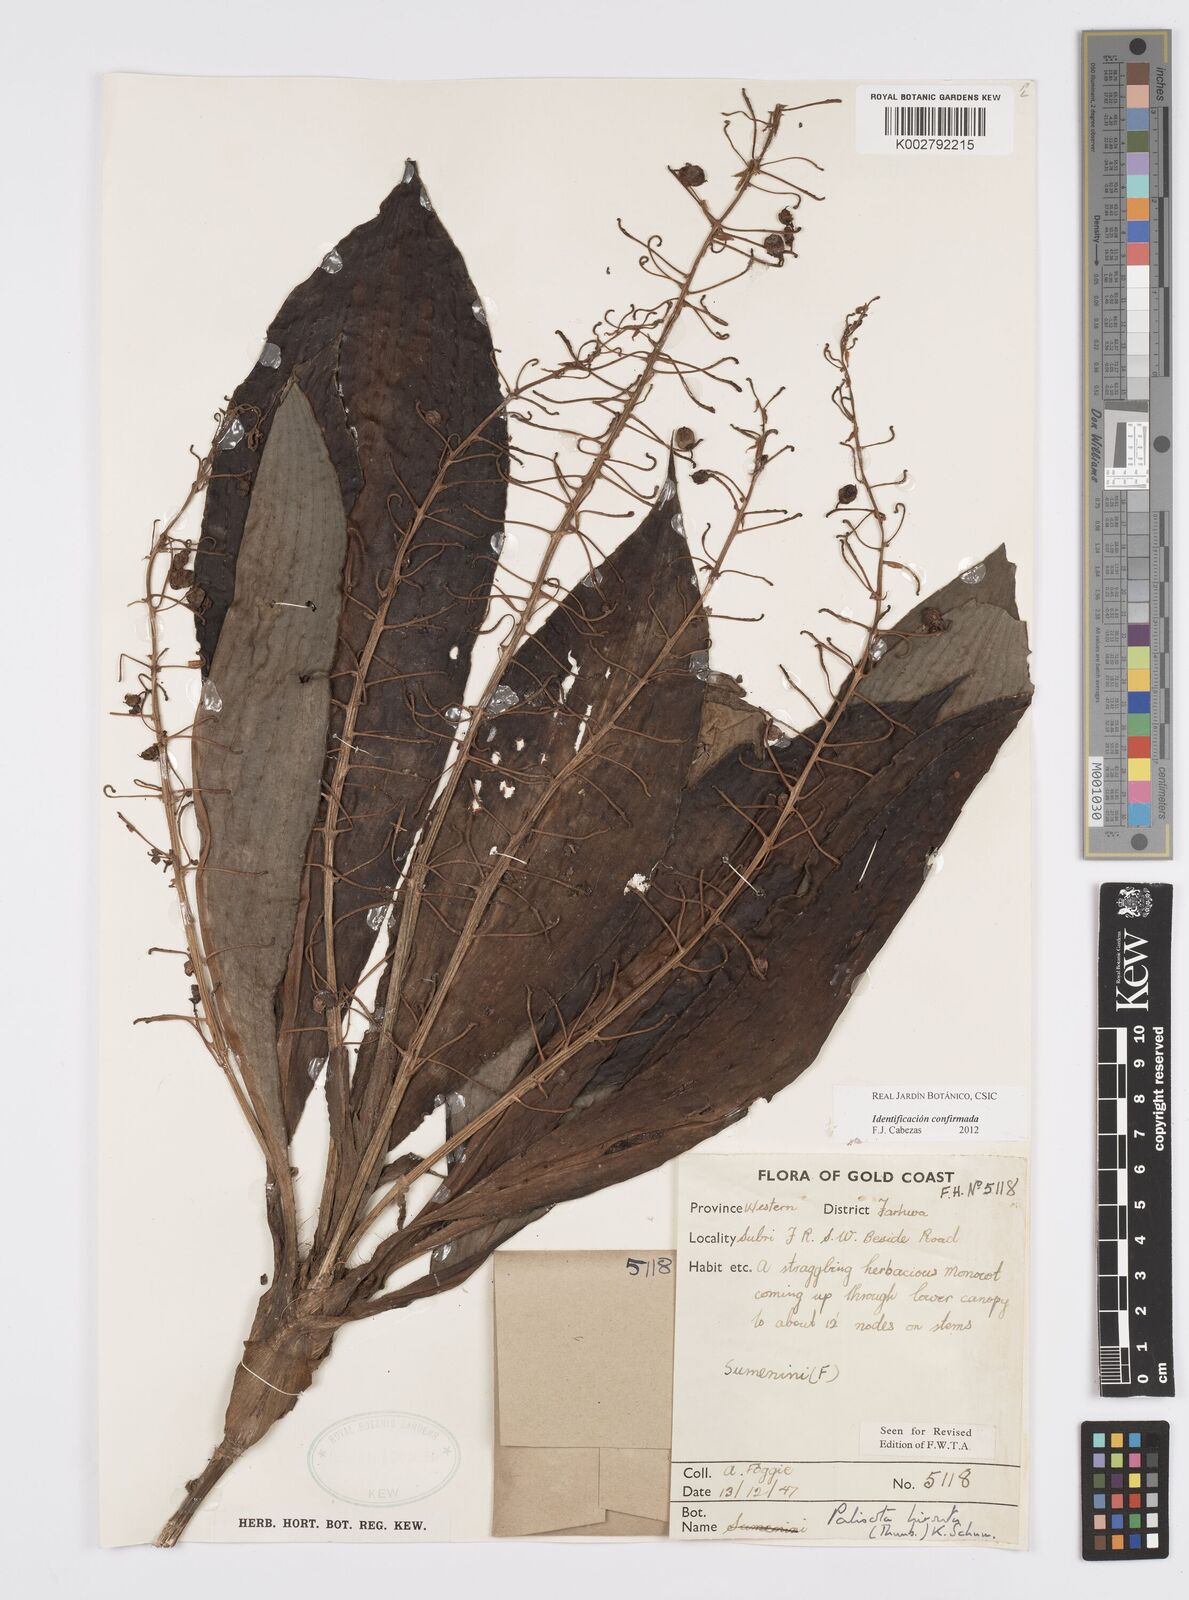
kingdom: Plantae
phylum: Tracheophyta
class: Liliopsida
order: Commelinales
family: Commelinaceae
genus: Palisota
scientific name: Palisota hirsuta
